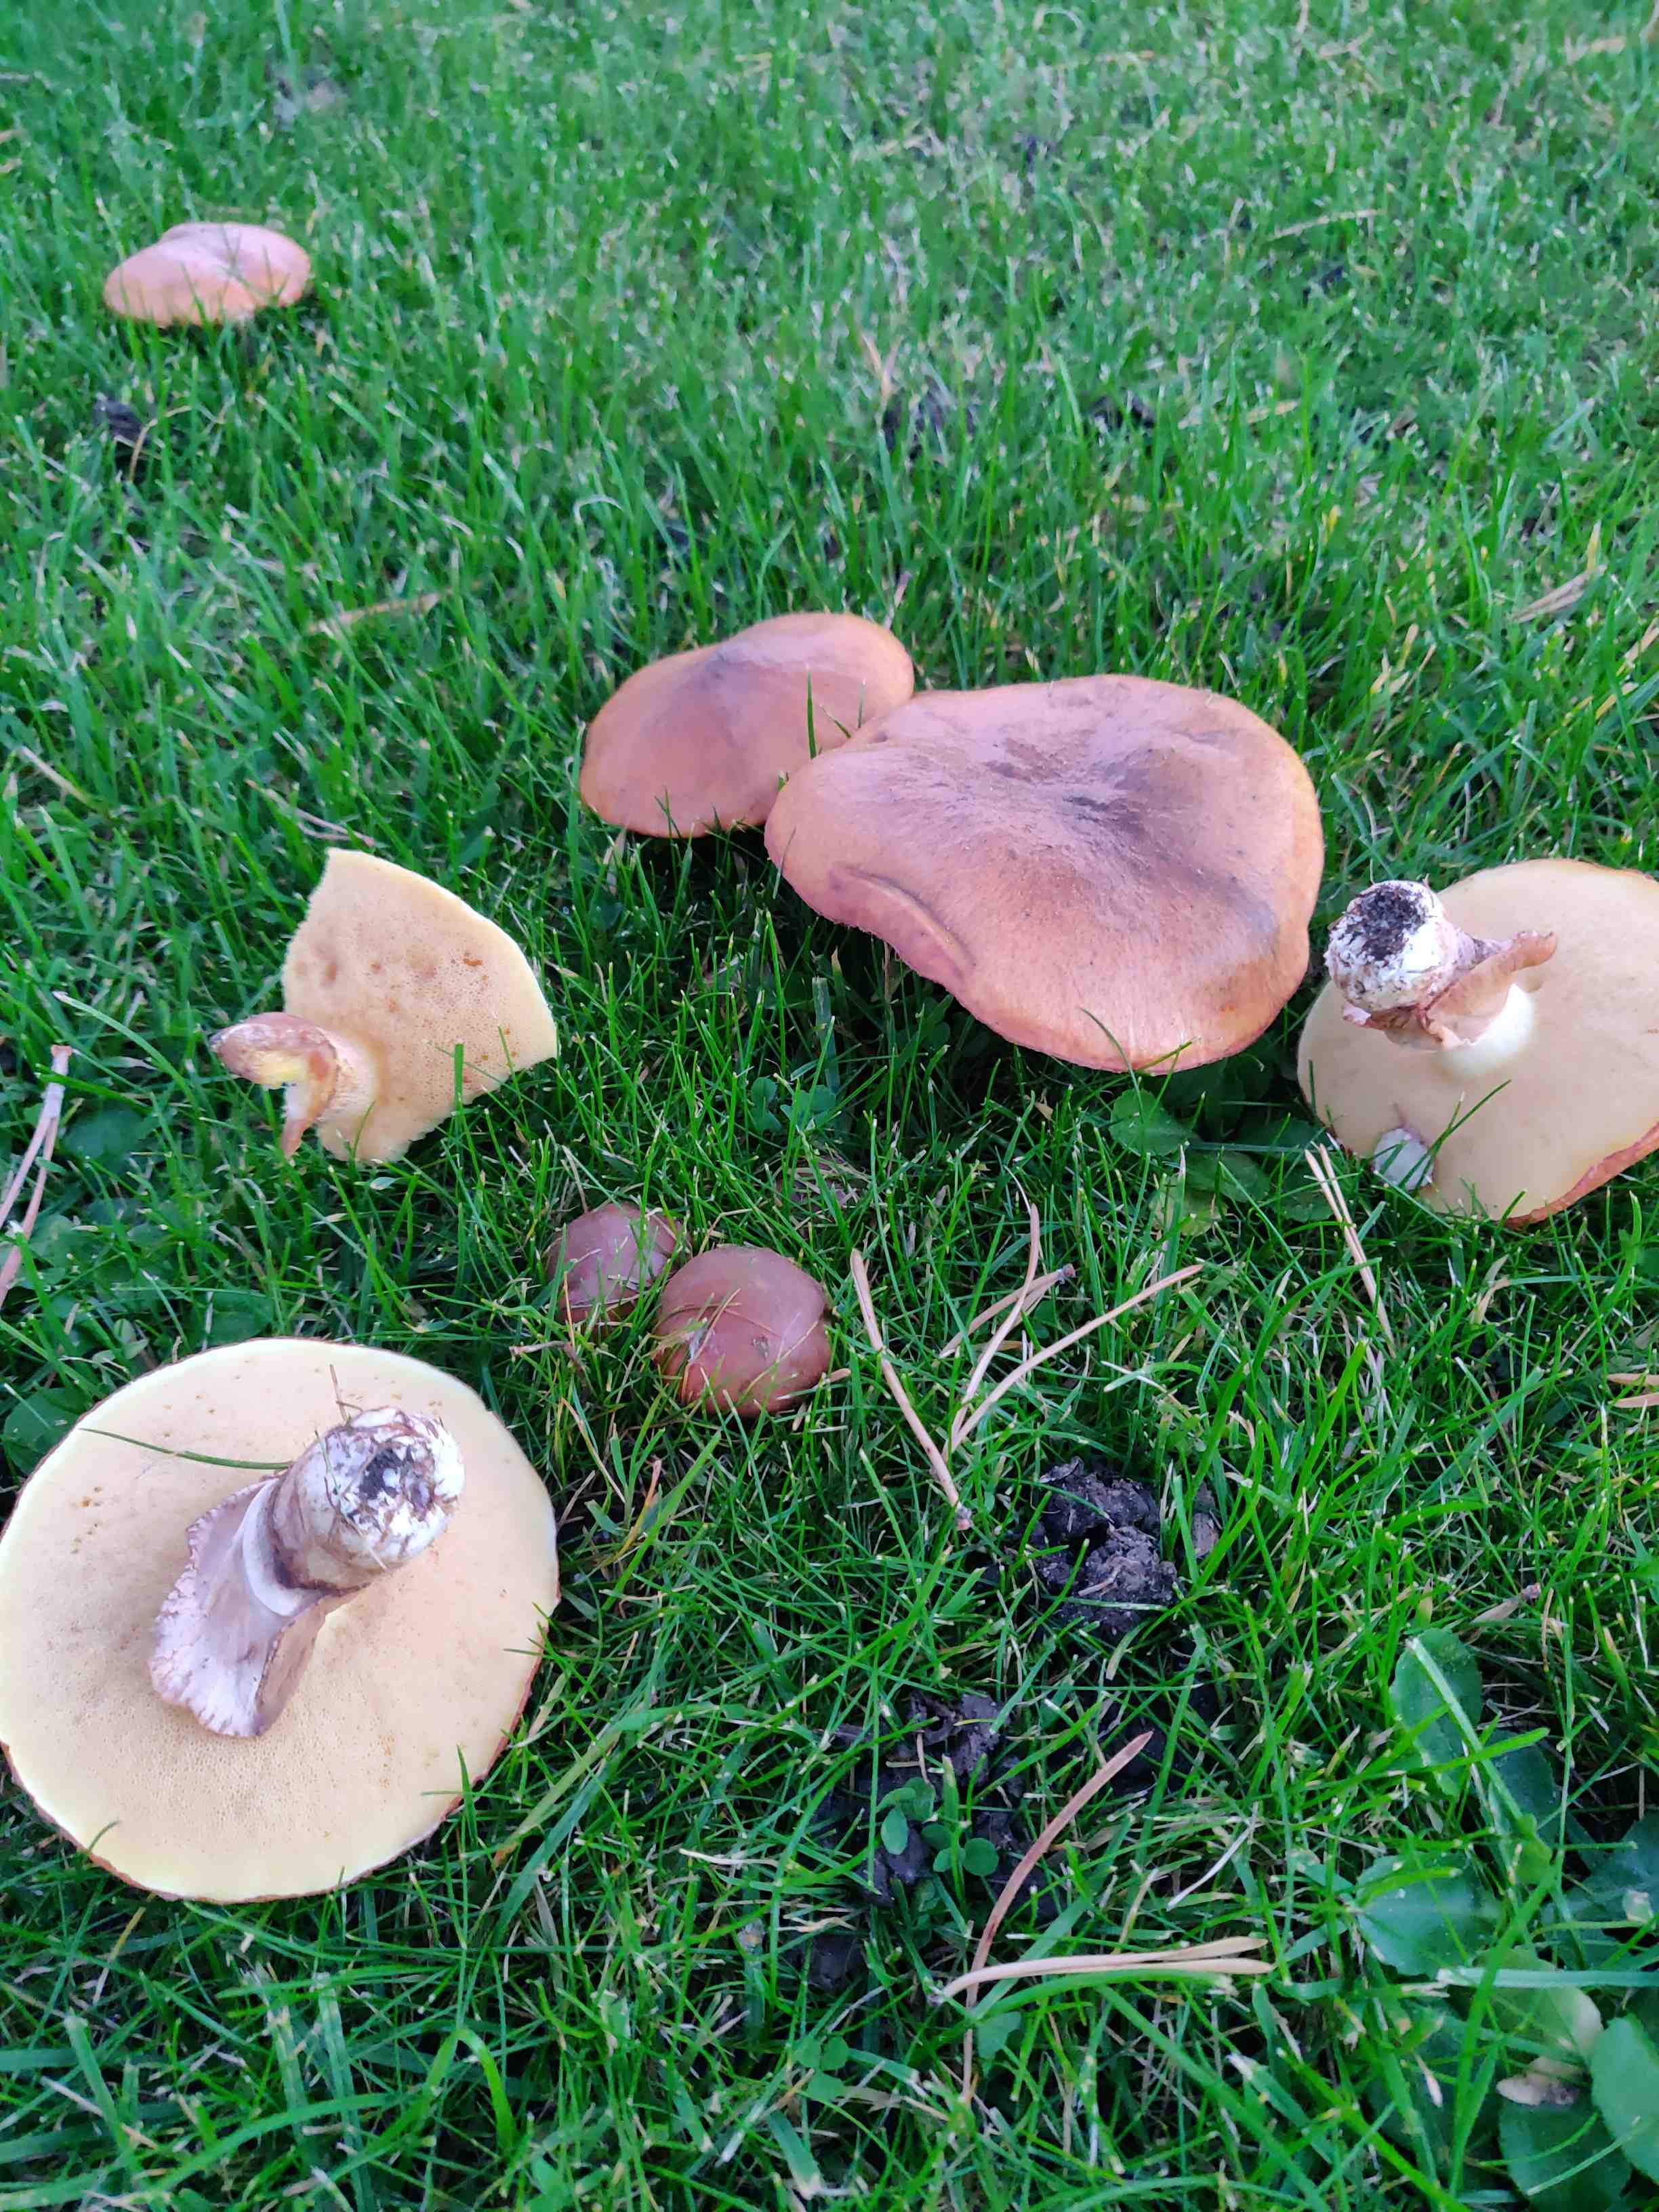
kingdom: Fungi
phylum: Basidiomycota
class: Agaricomycetes
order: Boletales
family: Suillaceae
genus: Suillus
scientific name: Suillus luteus
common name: brungul slimrørhat
